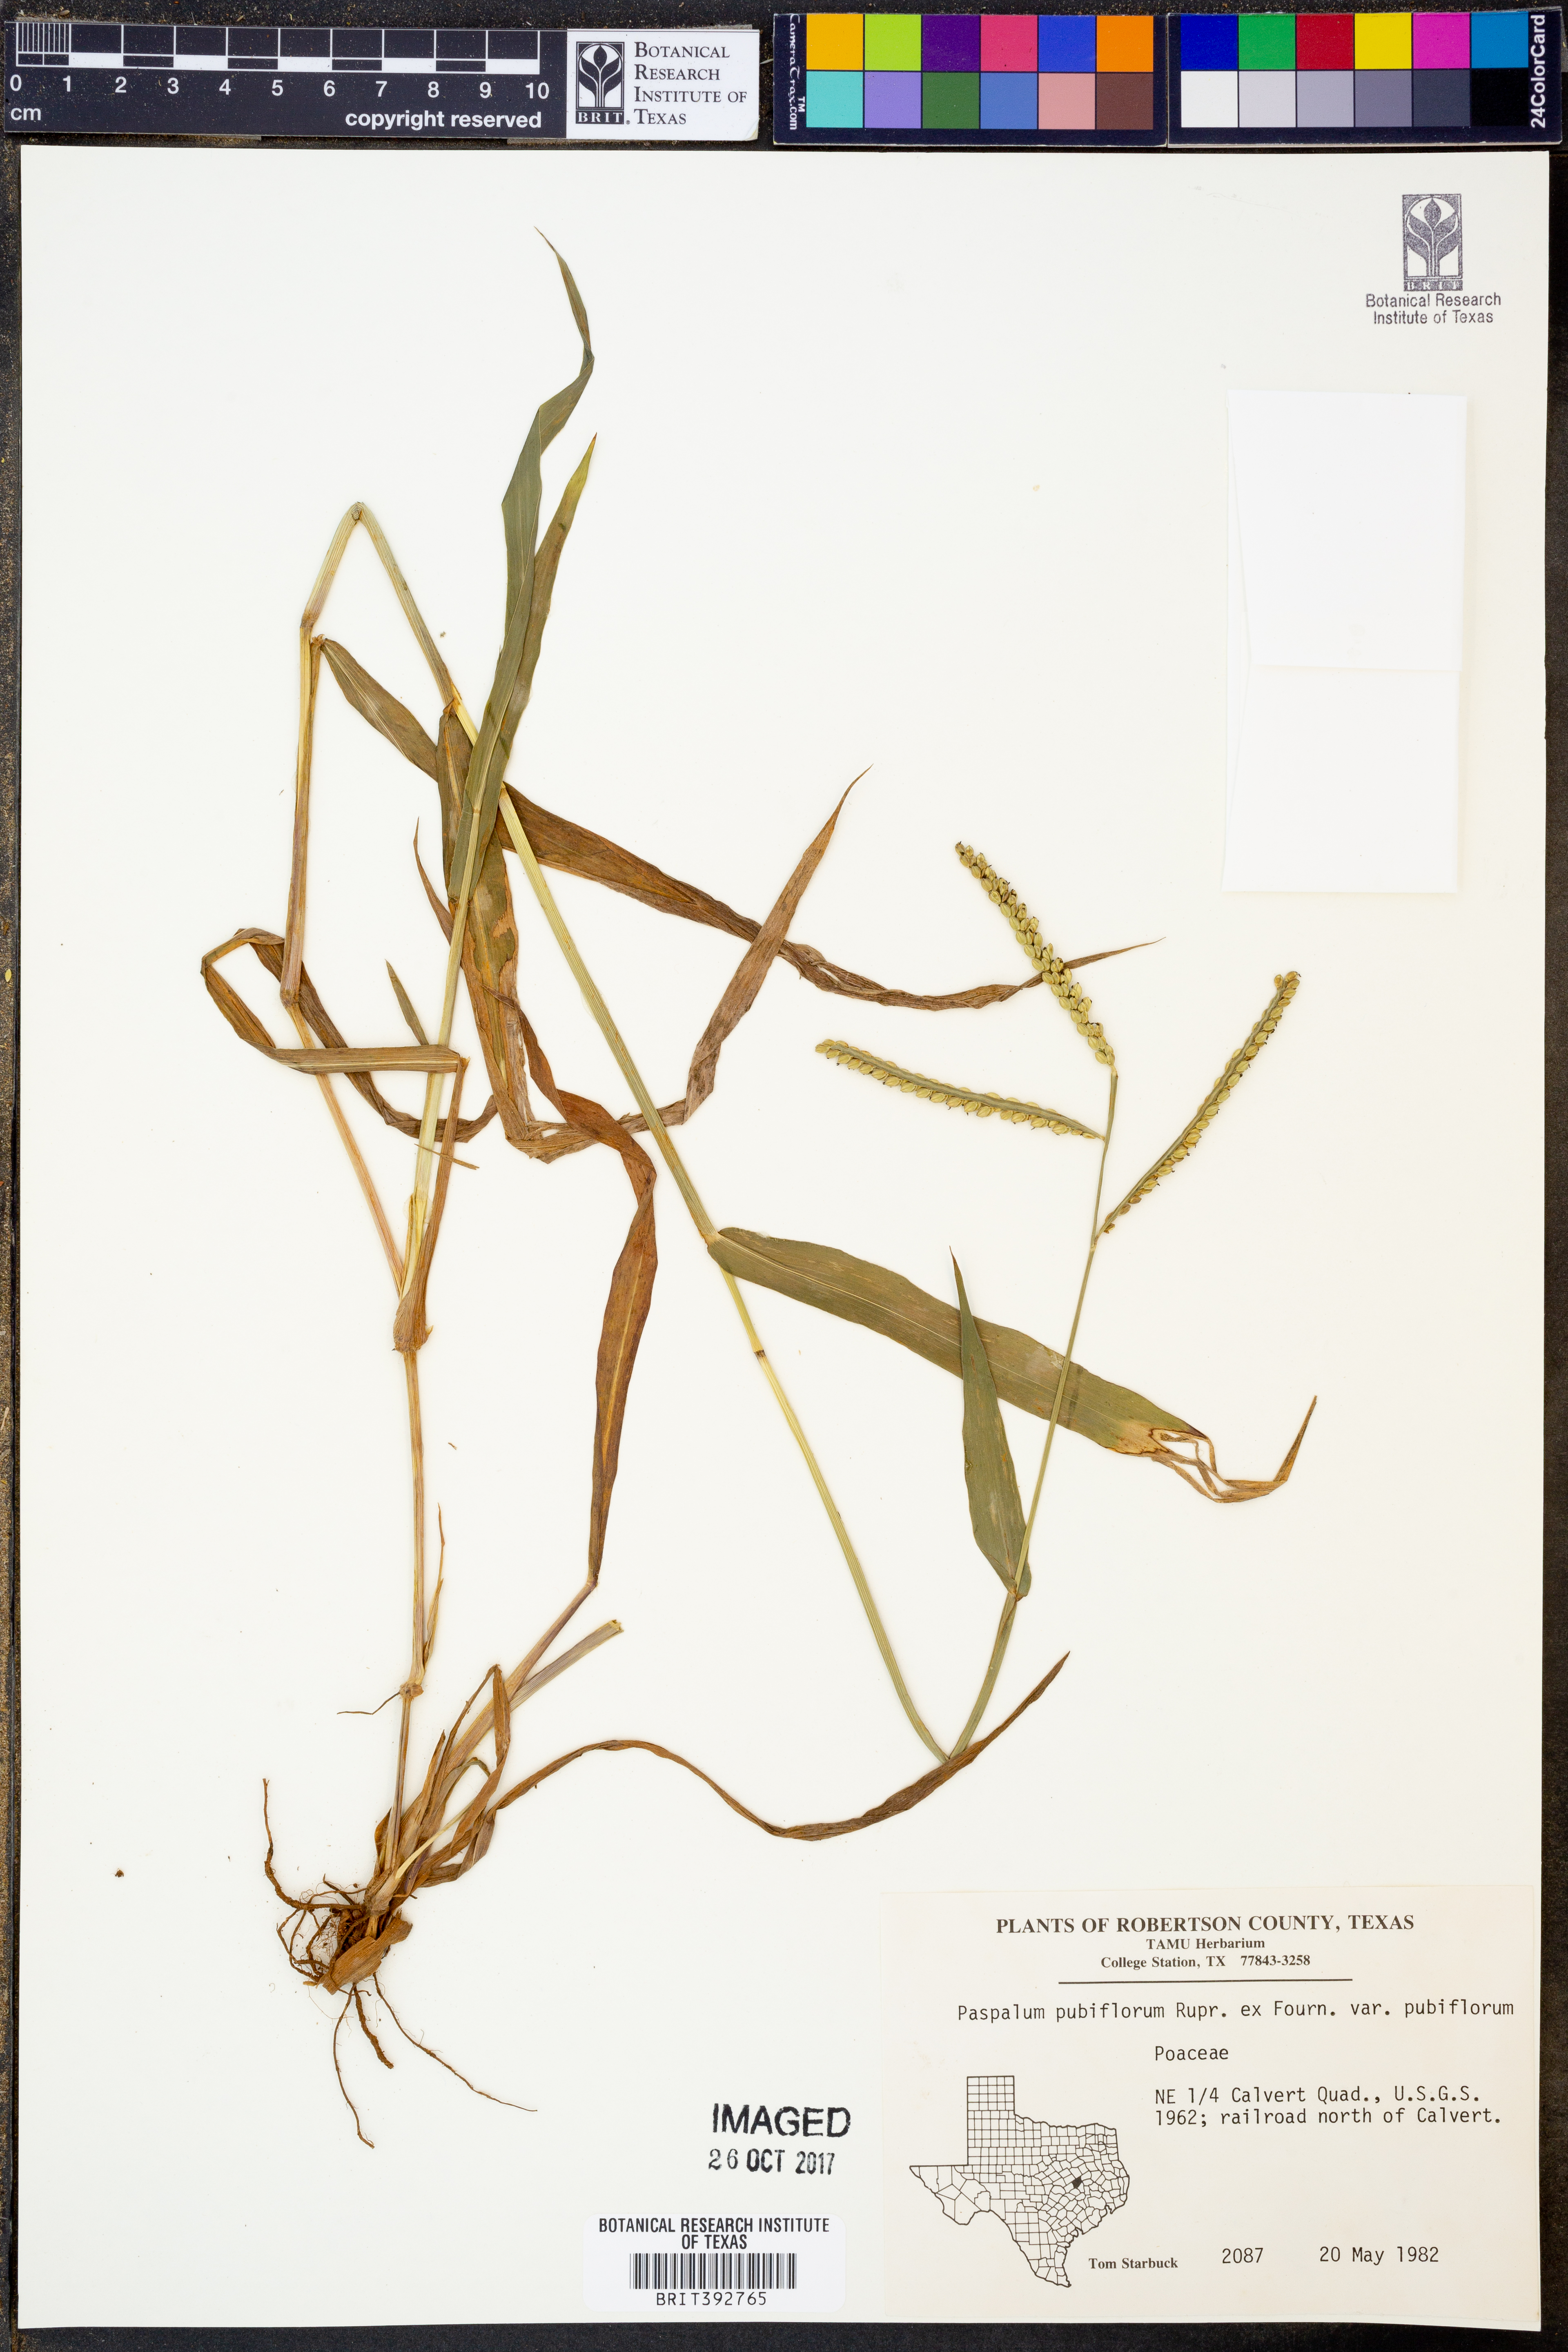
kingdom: Plantae
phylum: Tracheophyta
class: Liliopsida
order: Poales
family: Poaceae
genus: Paspalum
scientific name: Paspalum pubiflorum
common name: Hairy-seed paspalum
